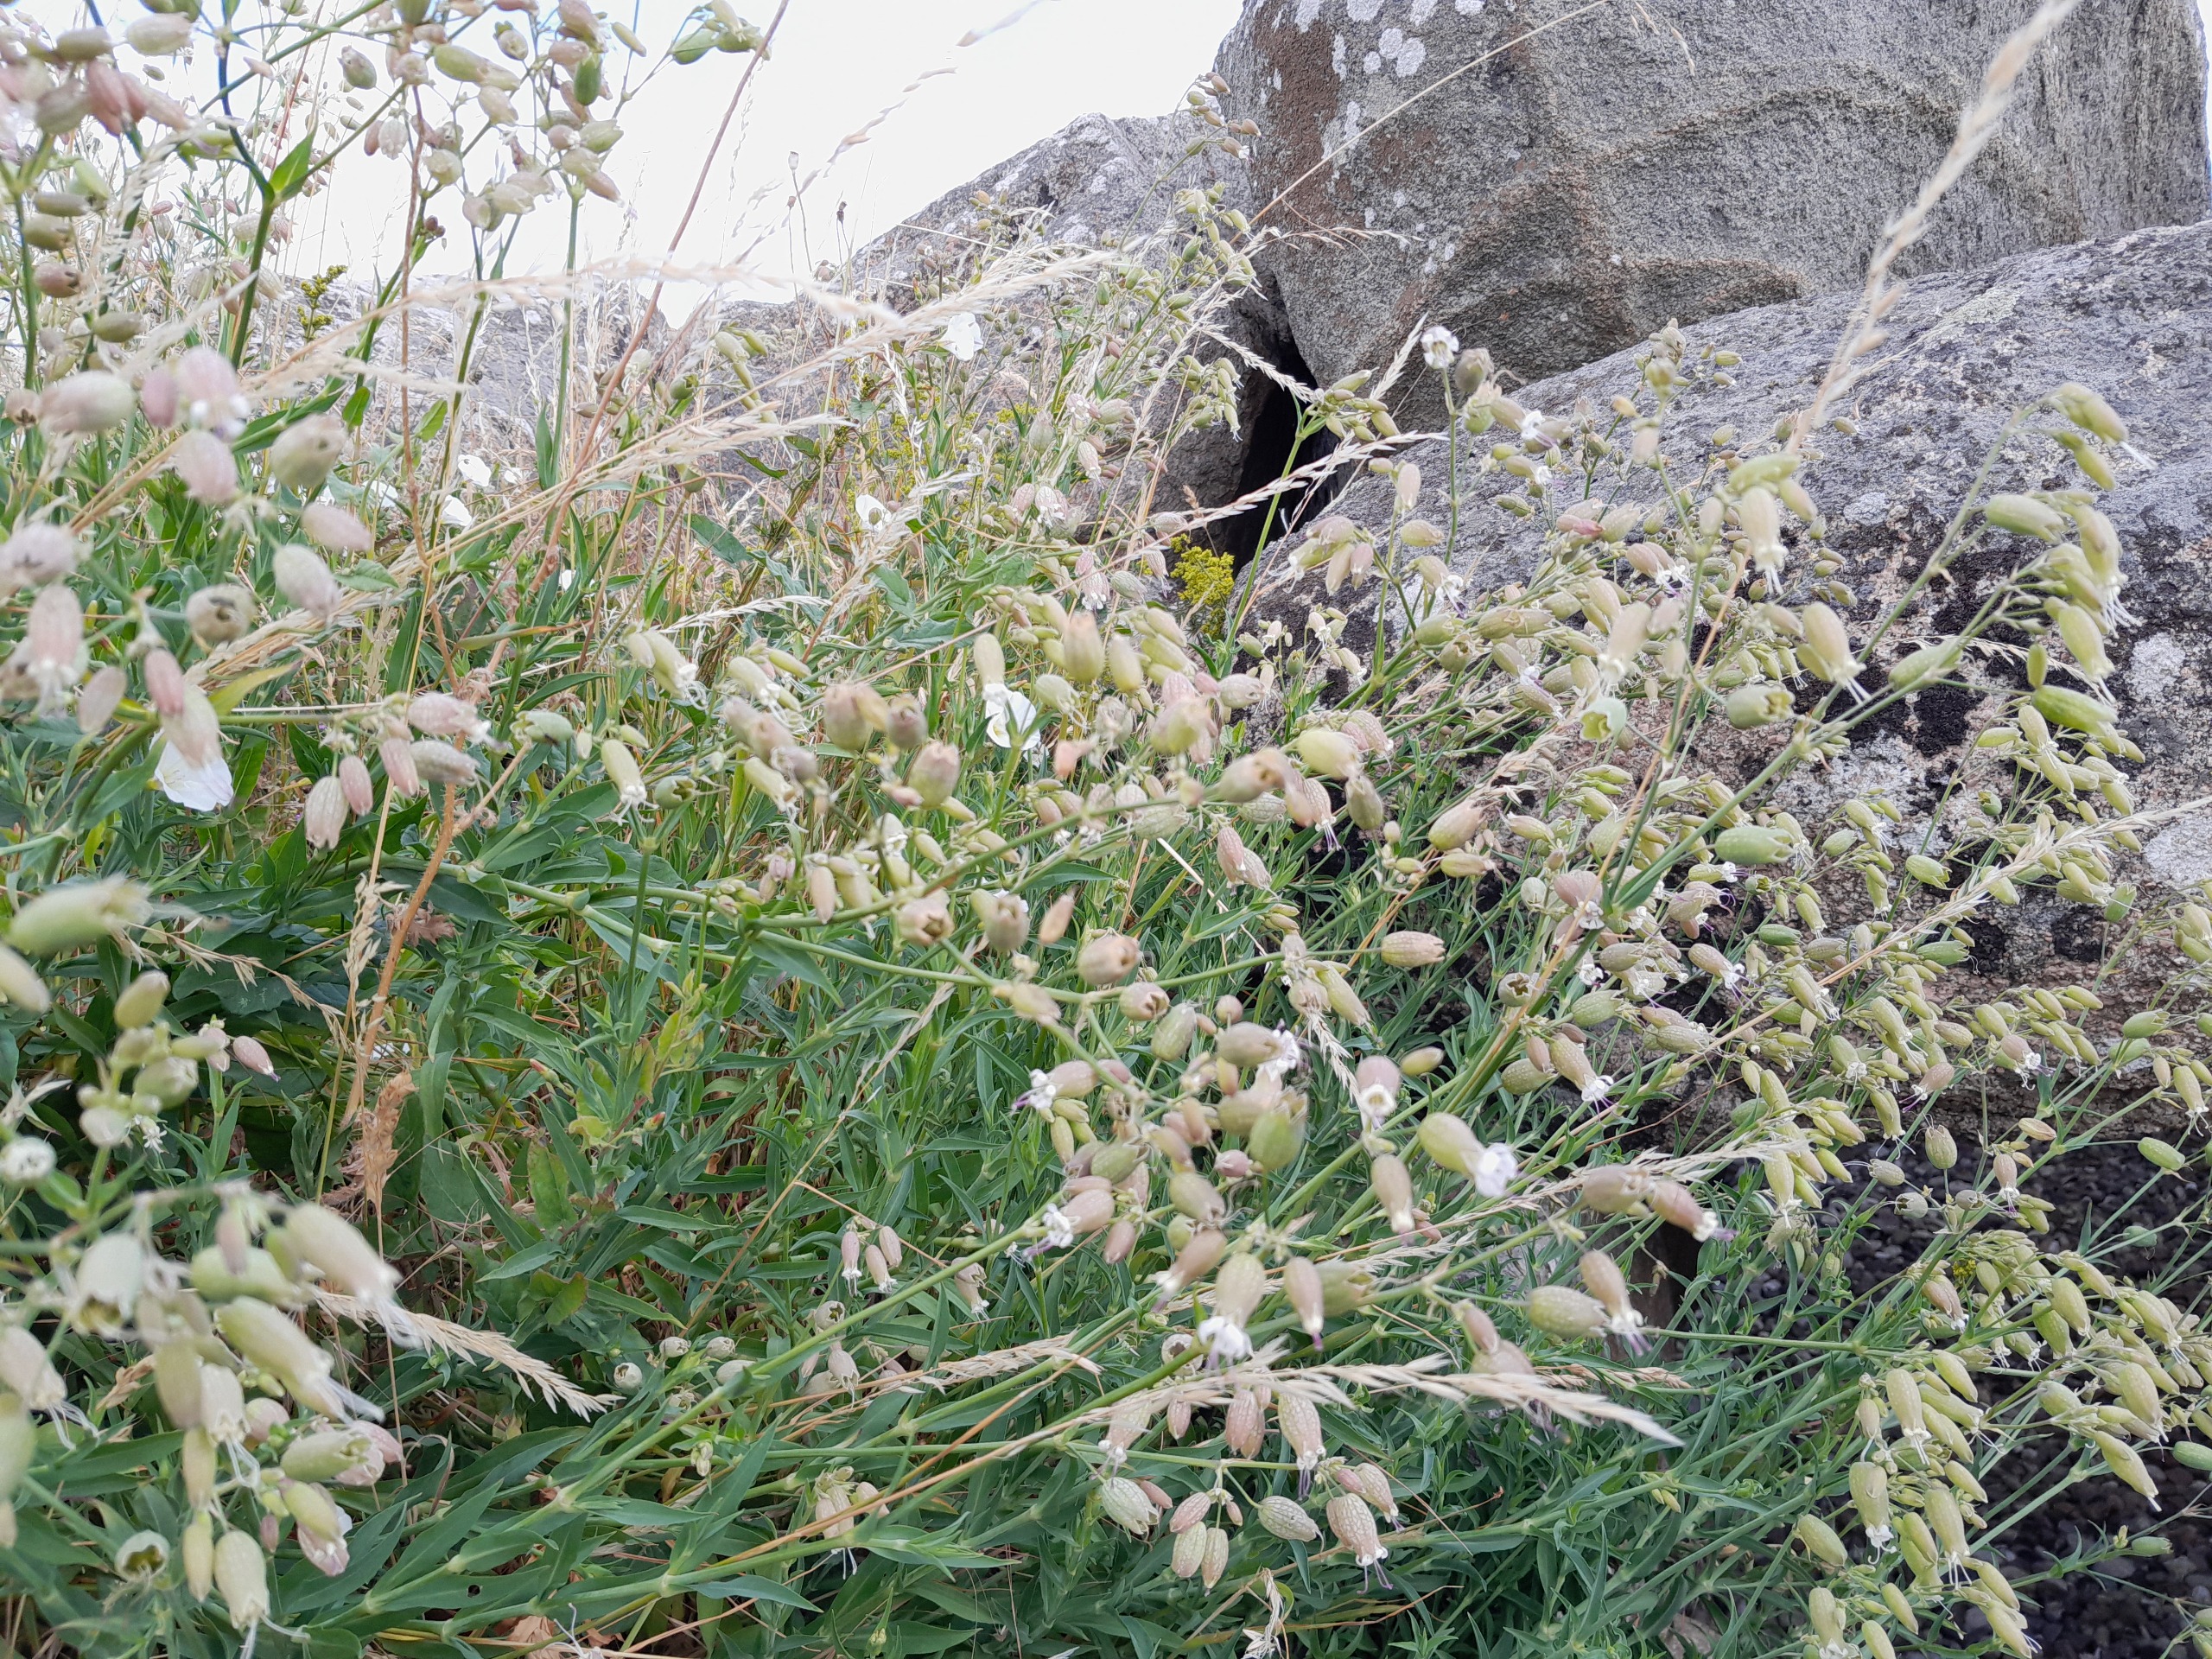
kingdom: Plantae
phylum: Tracheophyta
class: Magnoliopsida
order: Caryophyllales
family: Caryophyllaceae
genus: Silene
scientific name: Silene vulgaris
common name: Blæresmælde
